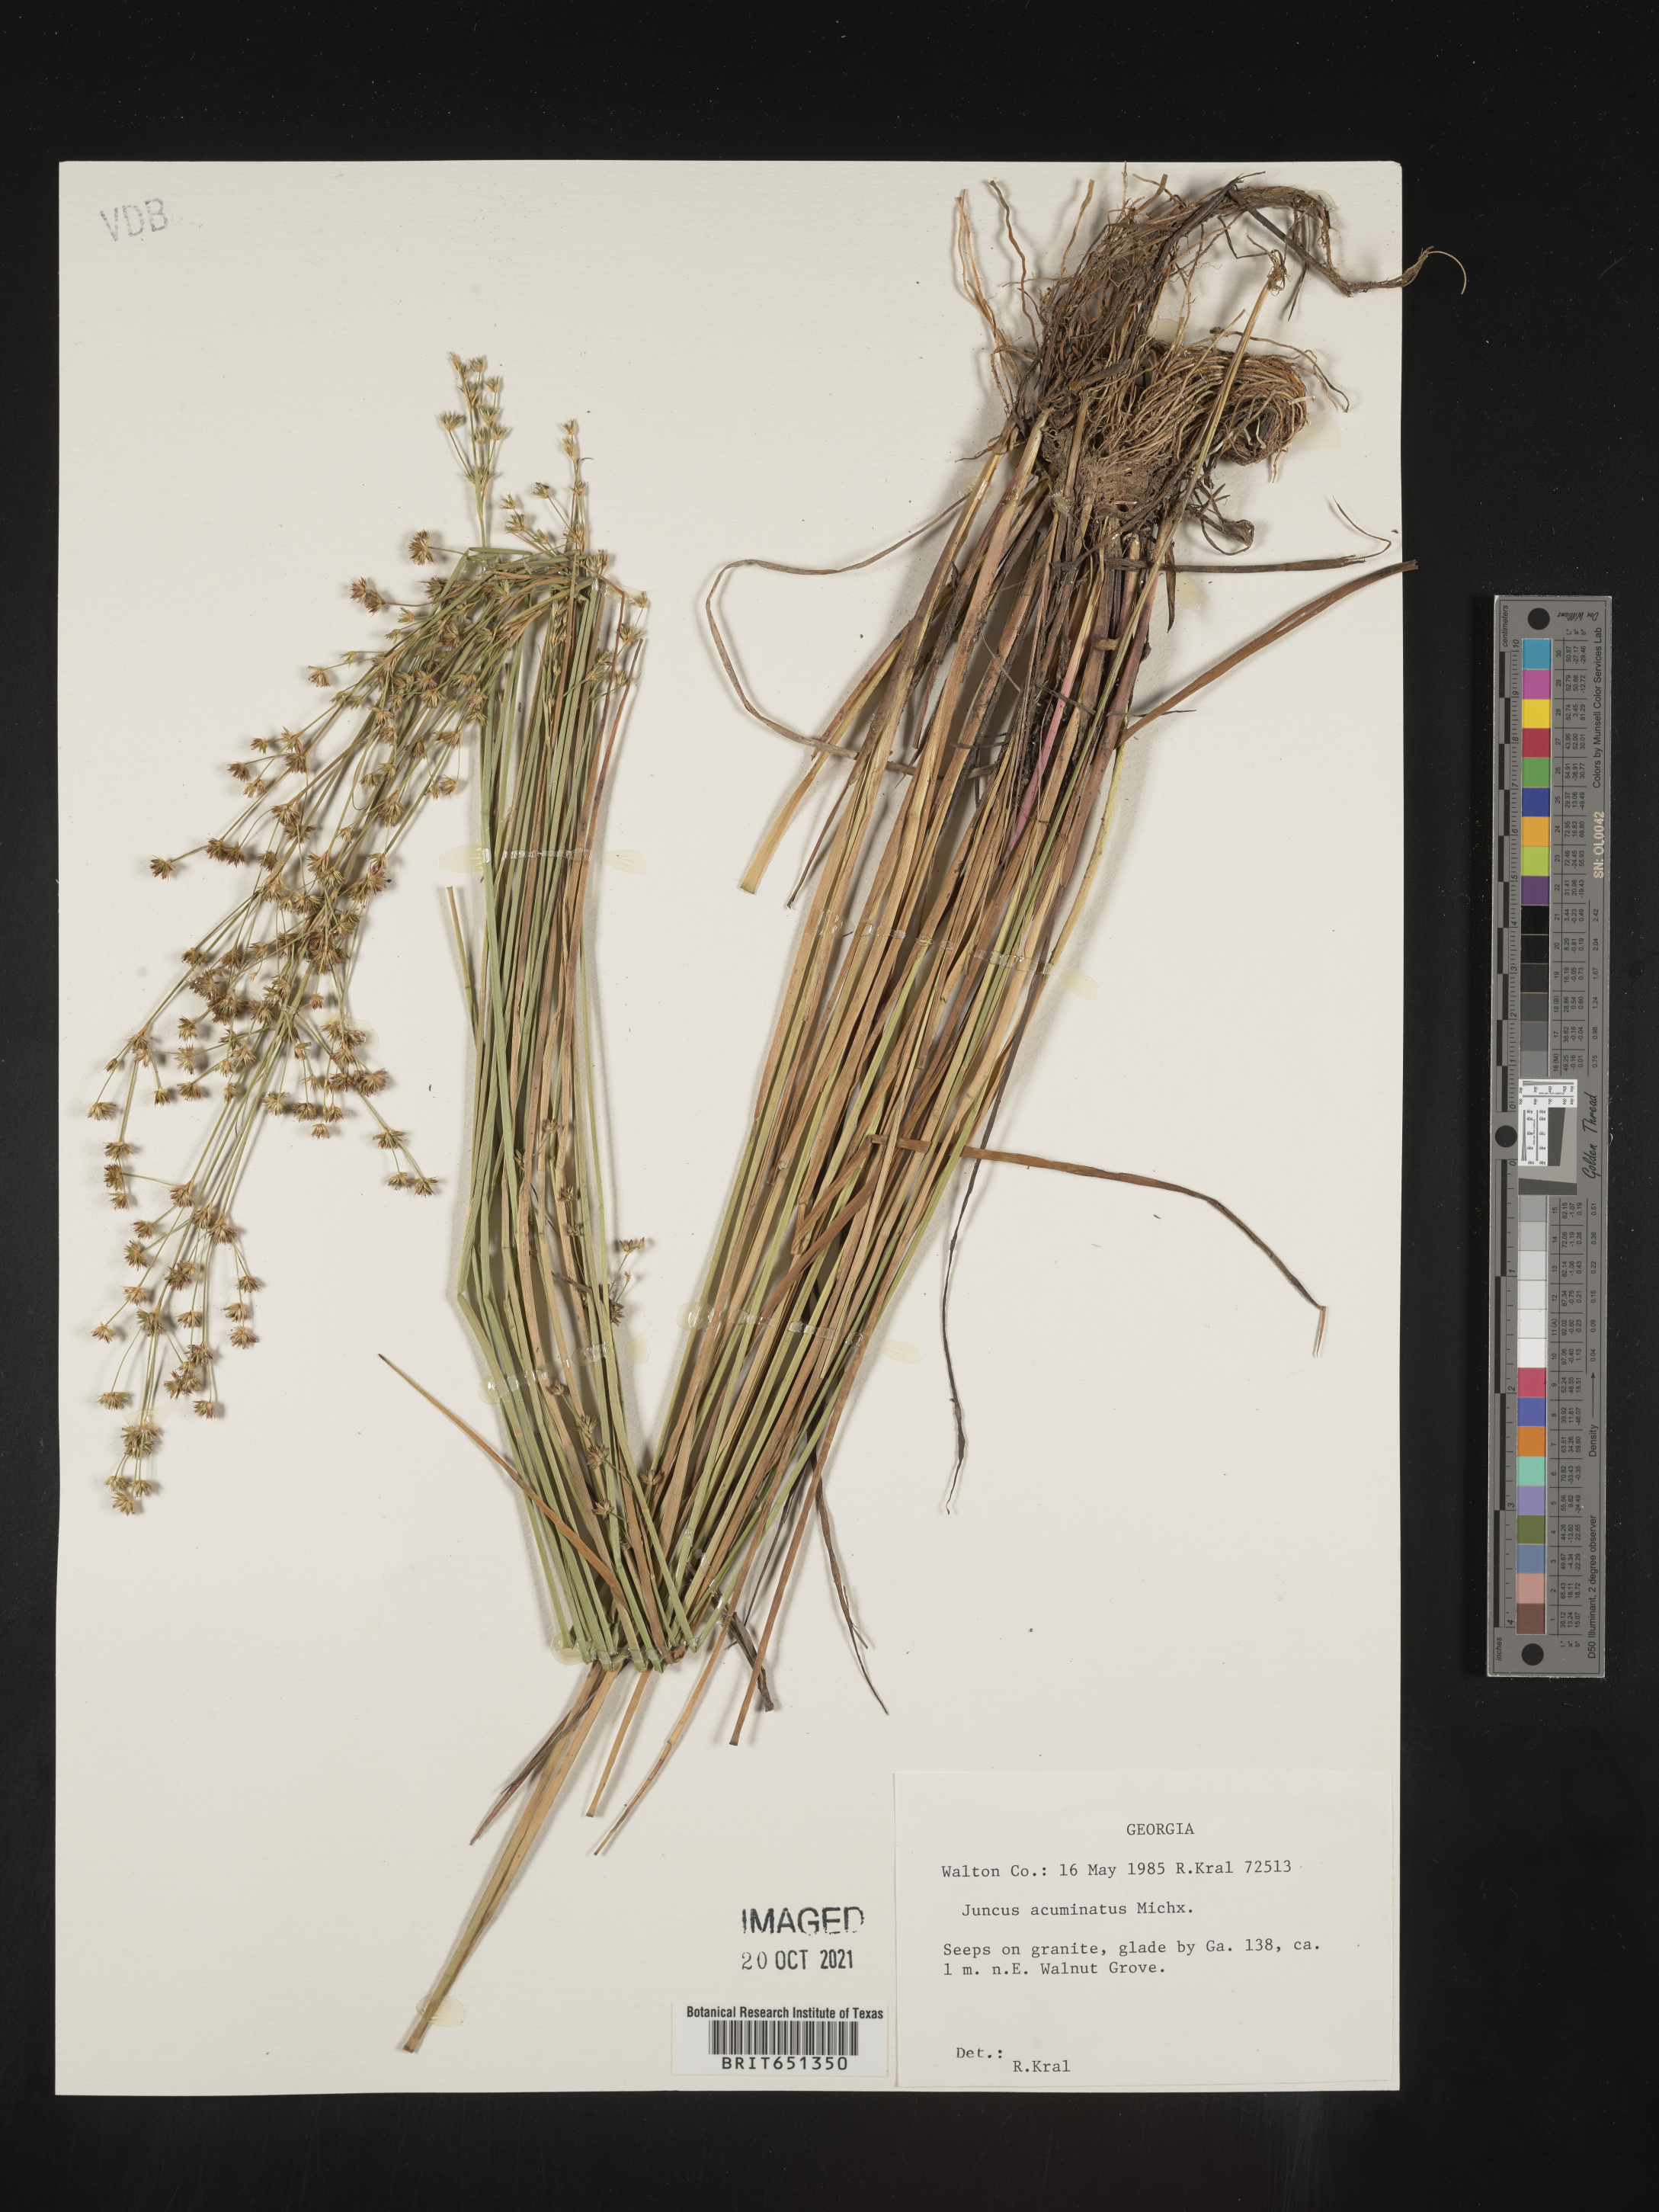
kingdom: Plantae
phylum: Tracheophyta
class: Liliopsida
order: Poales
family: Juncaceae
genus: Juncus
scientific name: Juncus acuminatus
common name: Knotty-leaved rush
